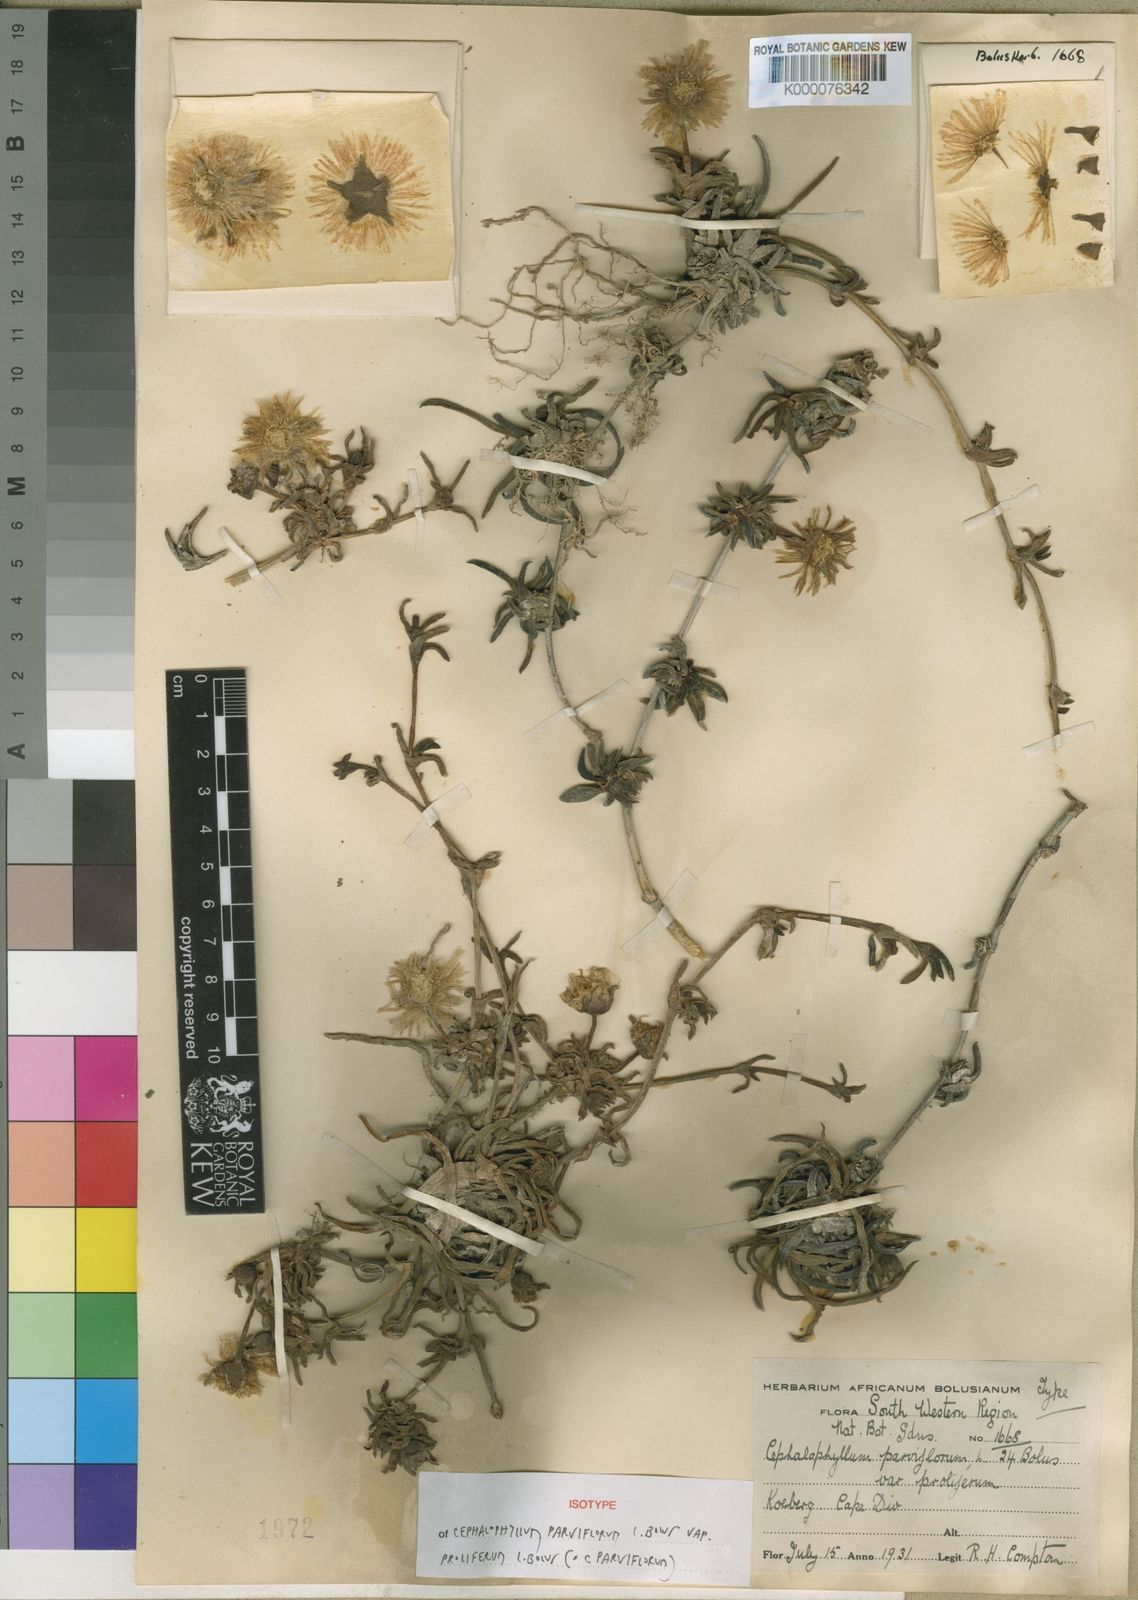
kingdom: Plantae
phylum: Tracheophyta
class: Magnoliopsida
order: Caryophyllales
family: Aizoaceae
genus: Cephalophyllum
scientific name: Cephalophyllum parviflorum
